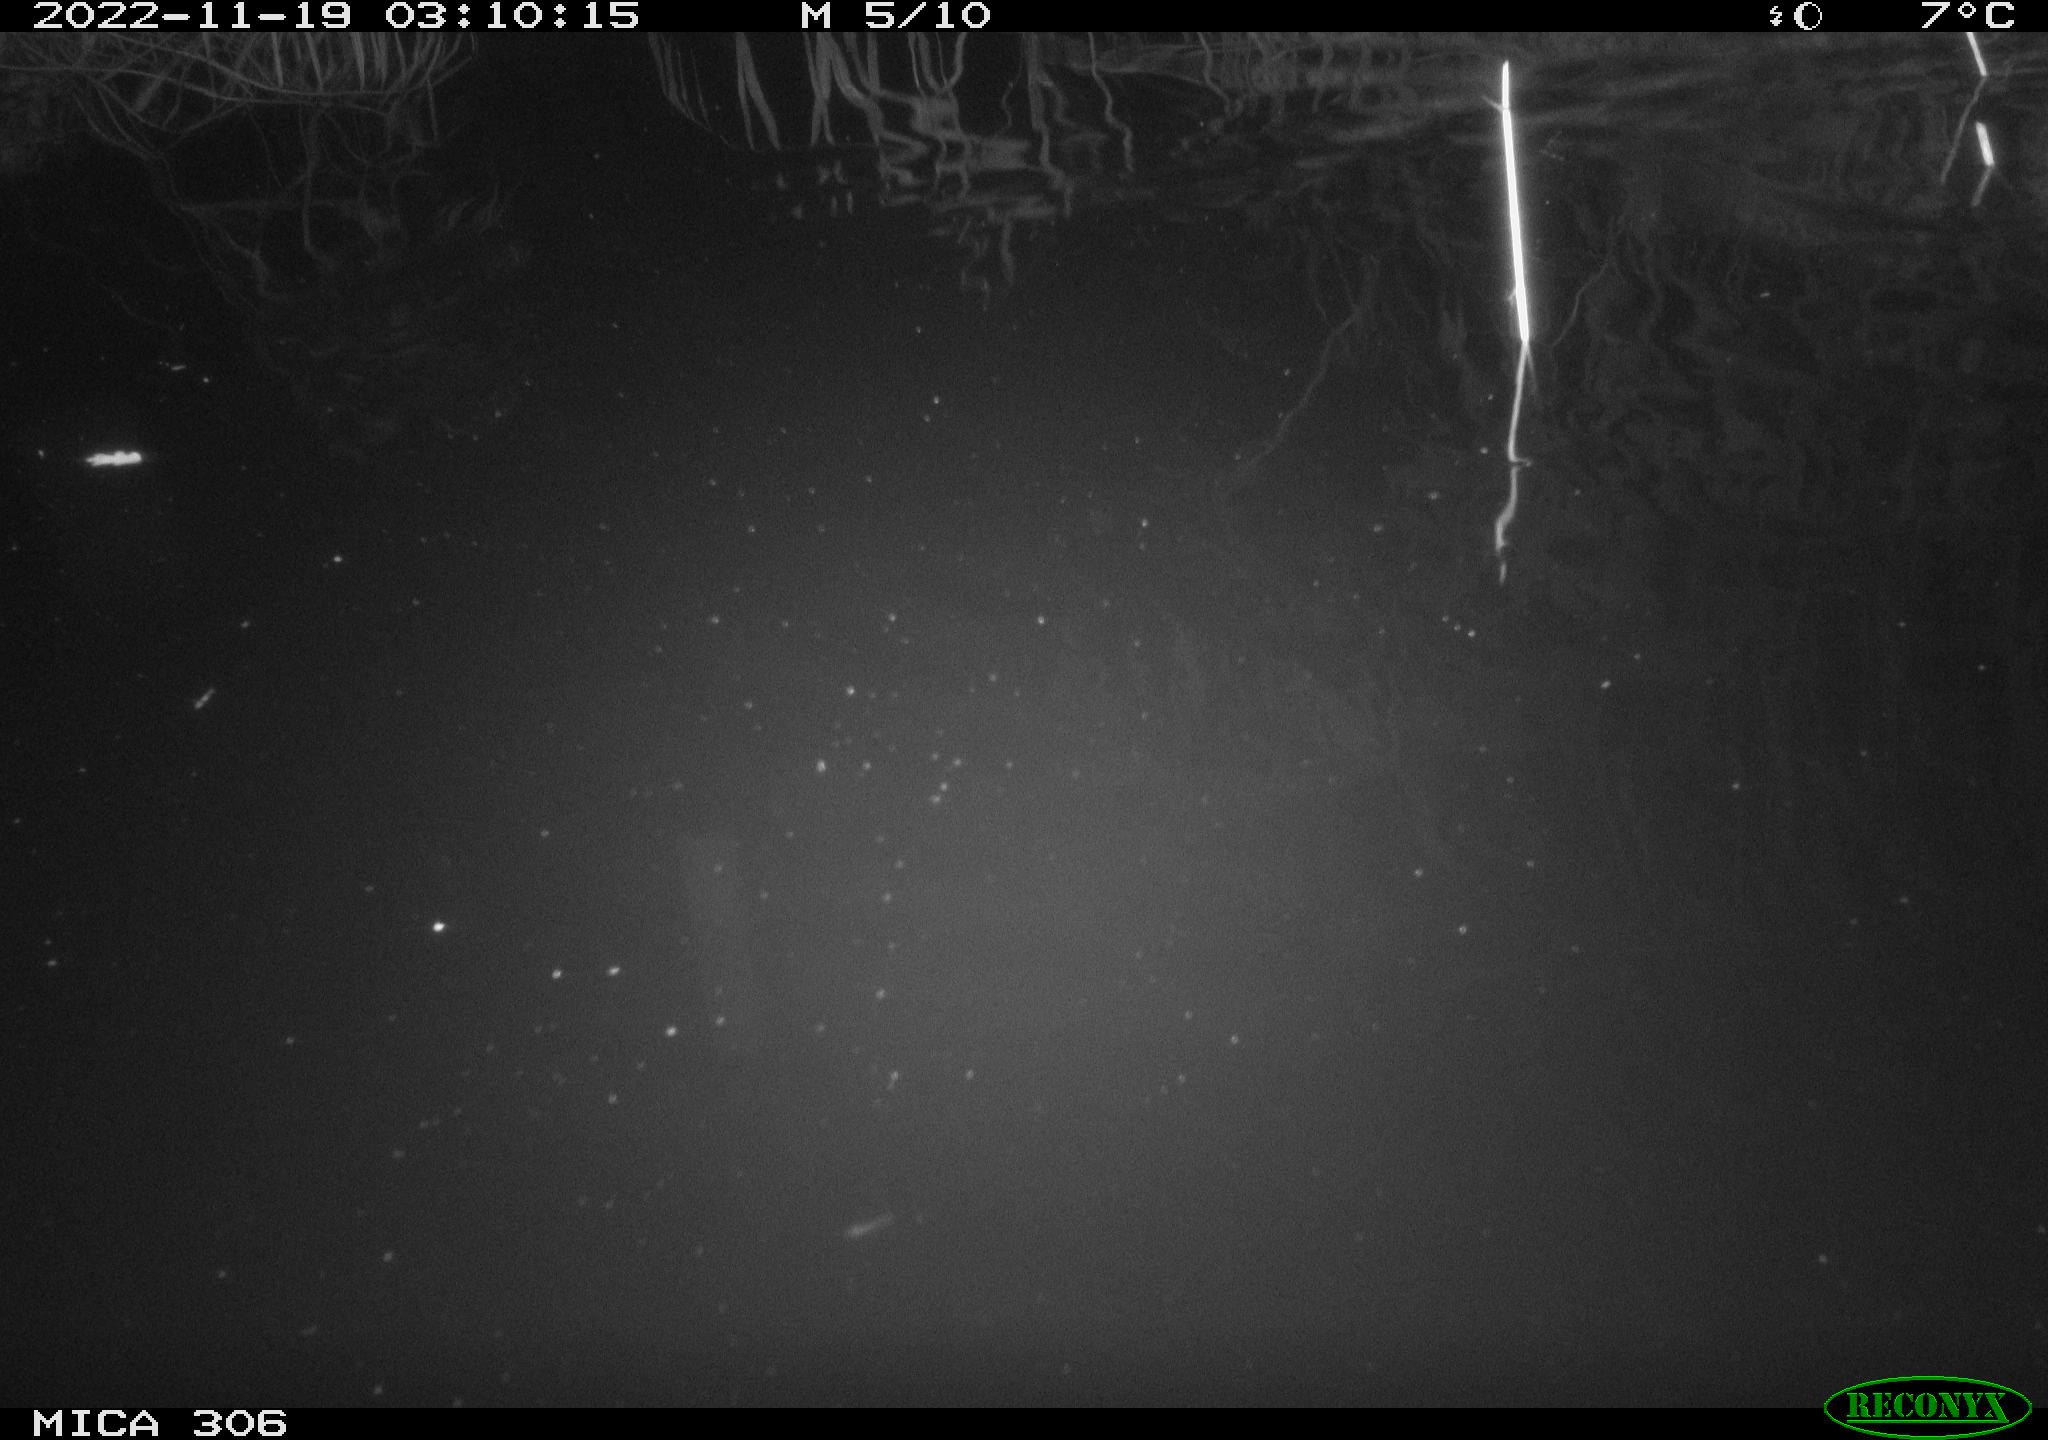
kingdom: Animalia
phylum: Chordata
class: Mammalia
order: Rodentia
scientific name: Rodentia
